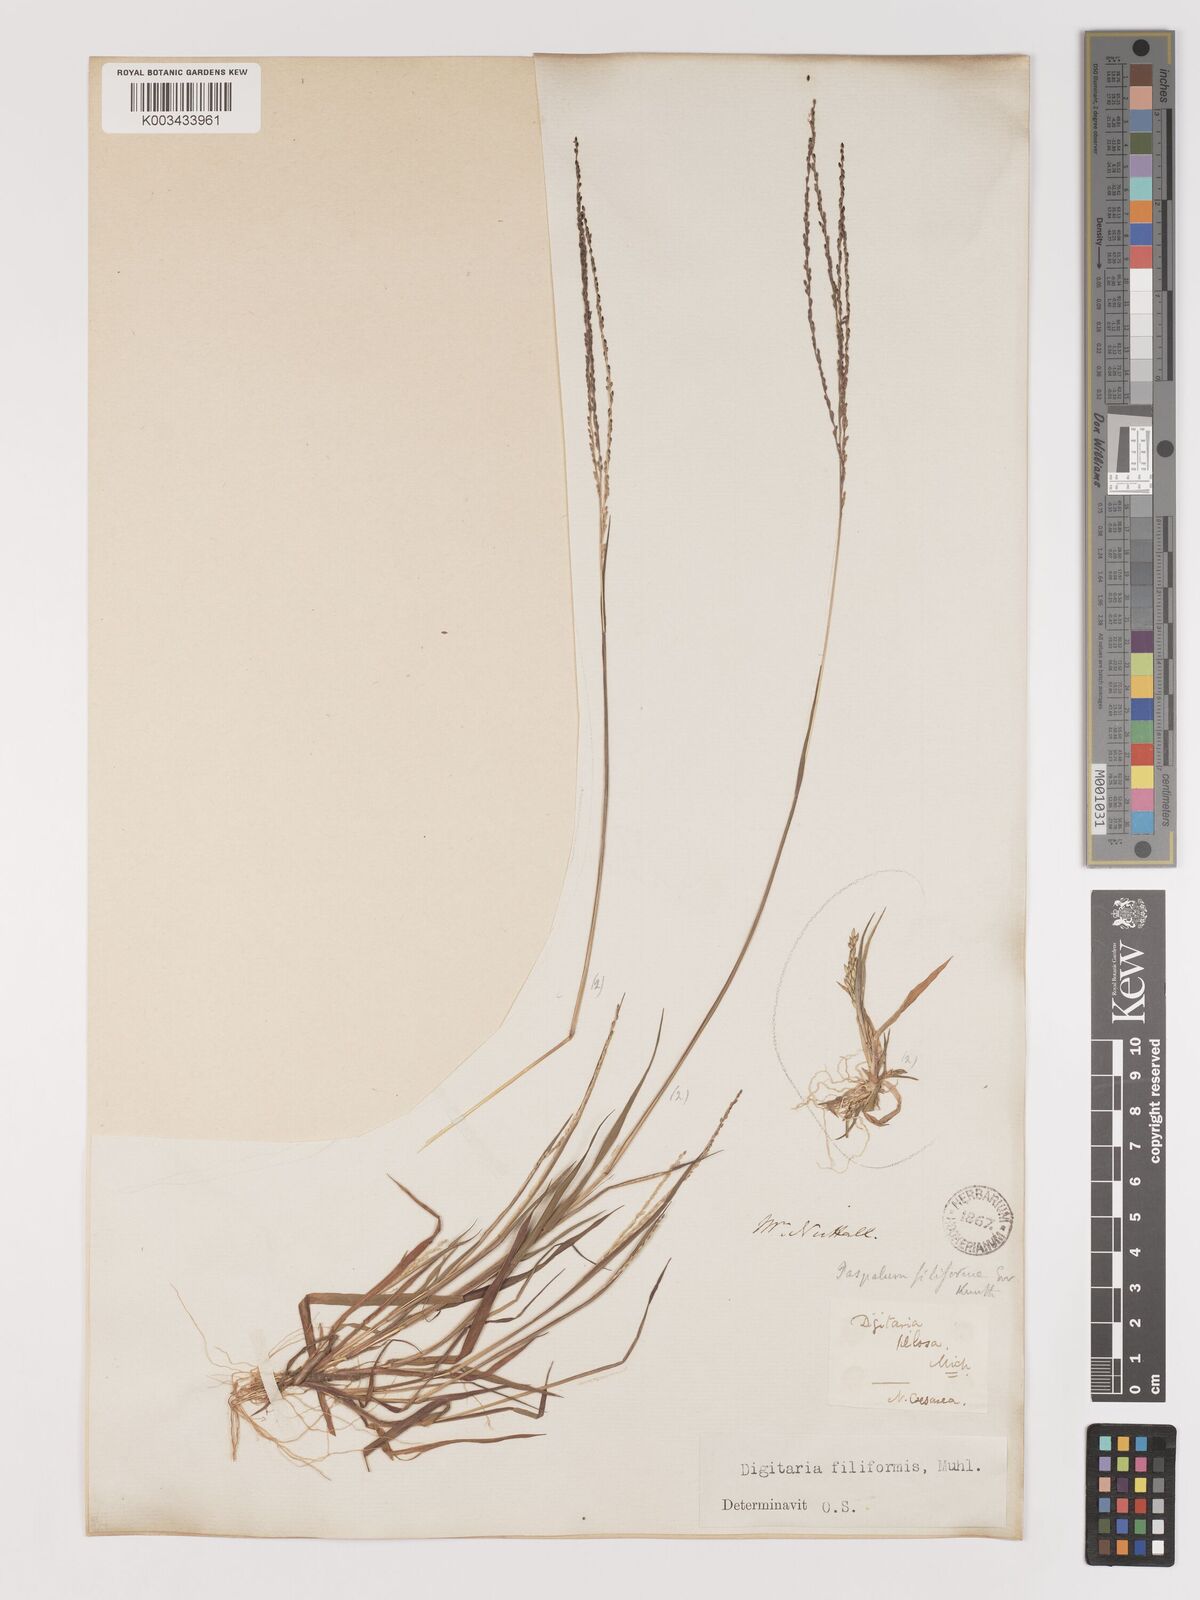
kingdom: Plantae
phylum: Tracheophyta
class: Liliopsida
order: Poales
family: Poaceae
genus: Digitaria
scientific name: Digitaria filiformis
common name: Slender crabgrass
